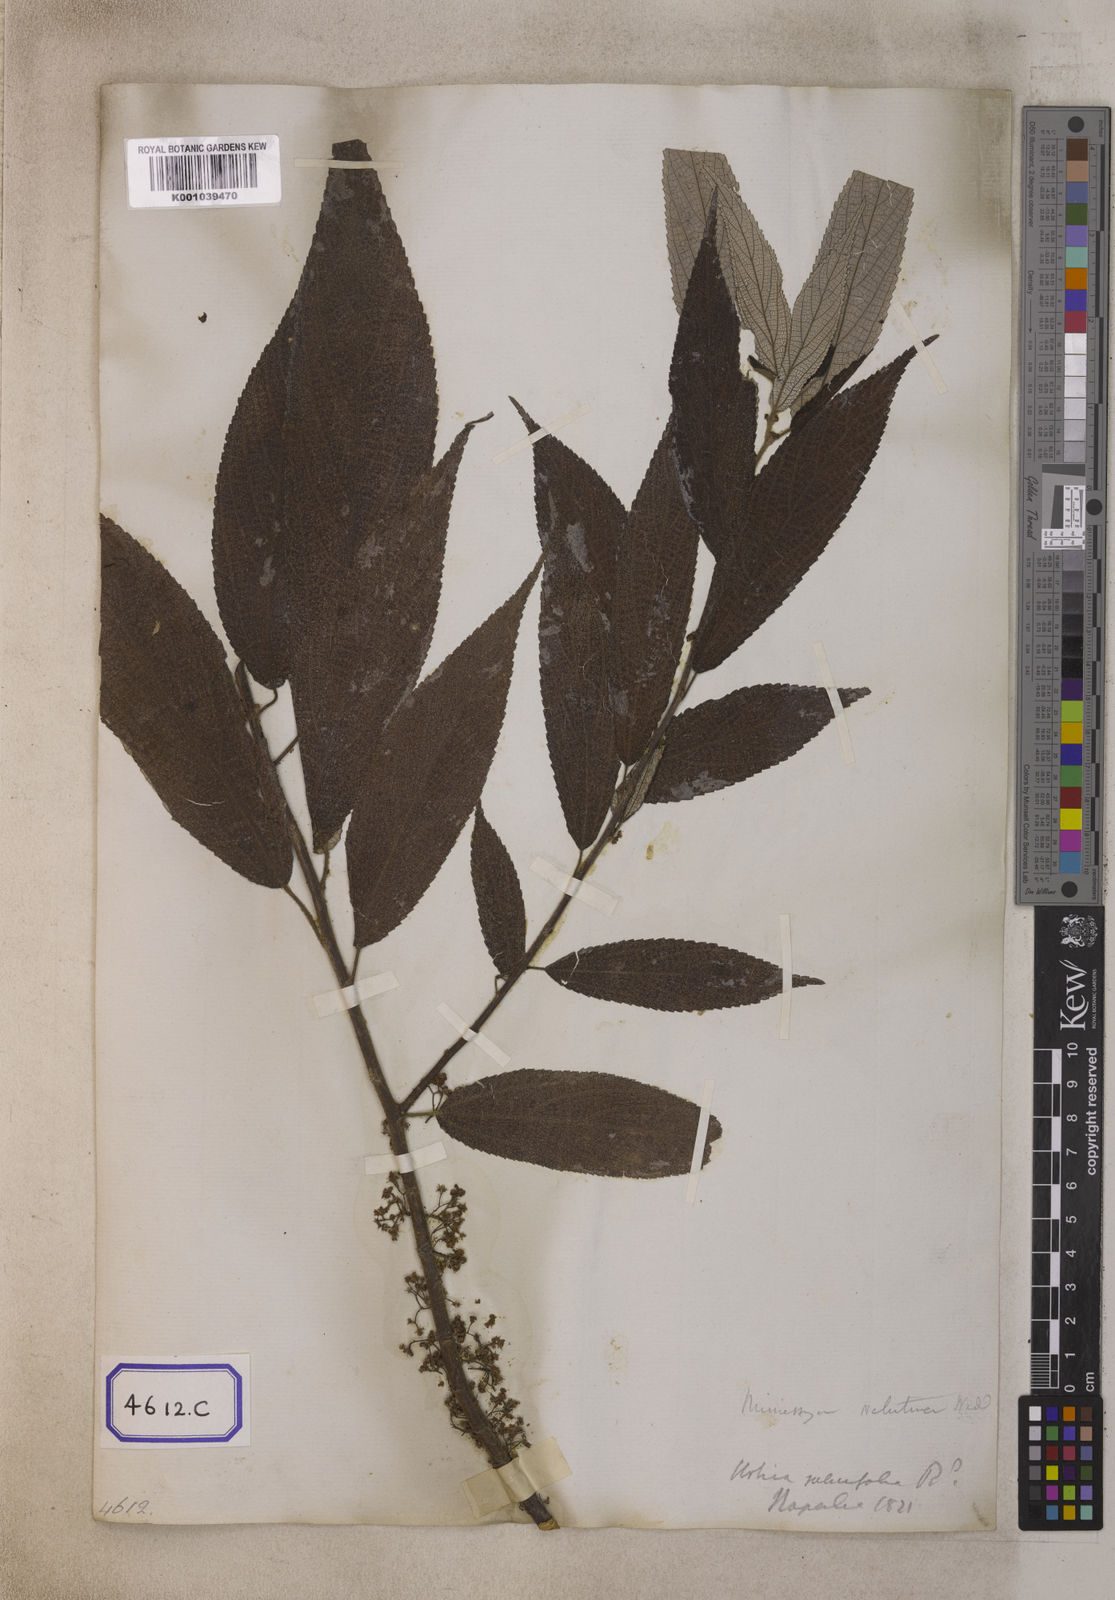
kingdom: Plantae
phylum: Tracheophyta
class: Magnoliopsida
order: Rosales
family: Urticaceae
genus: Debregeasia
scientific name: Debregeasia longifolia
